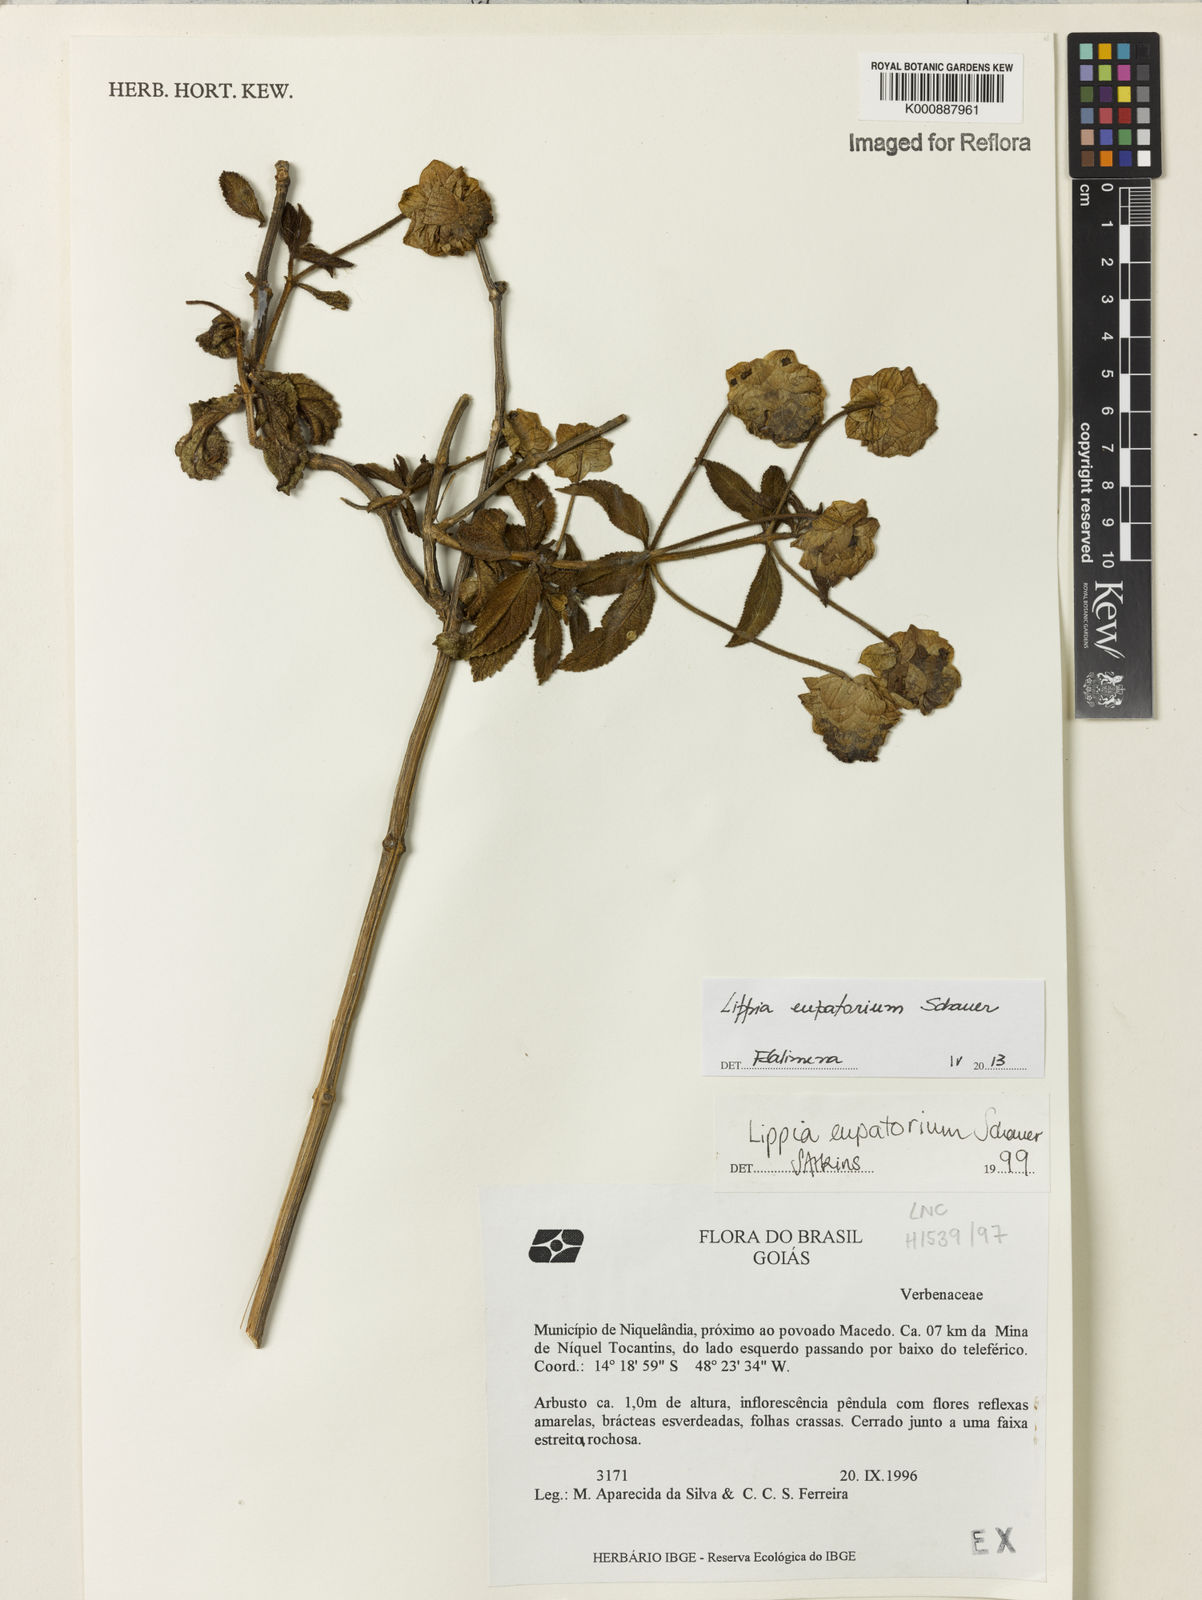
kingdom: Plantae
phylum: Tracheophyta
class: Magnoliopsida
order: Lamiales
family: Verbenaceae
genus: Lippia
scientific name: Lippia eupatorium
